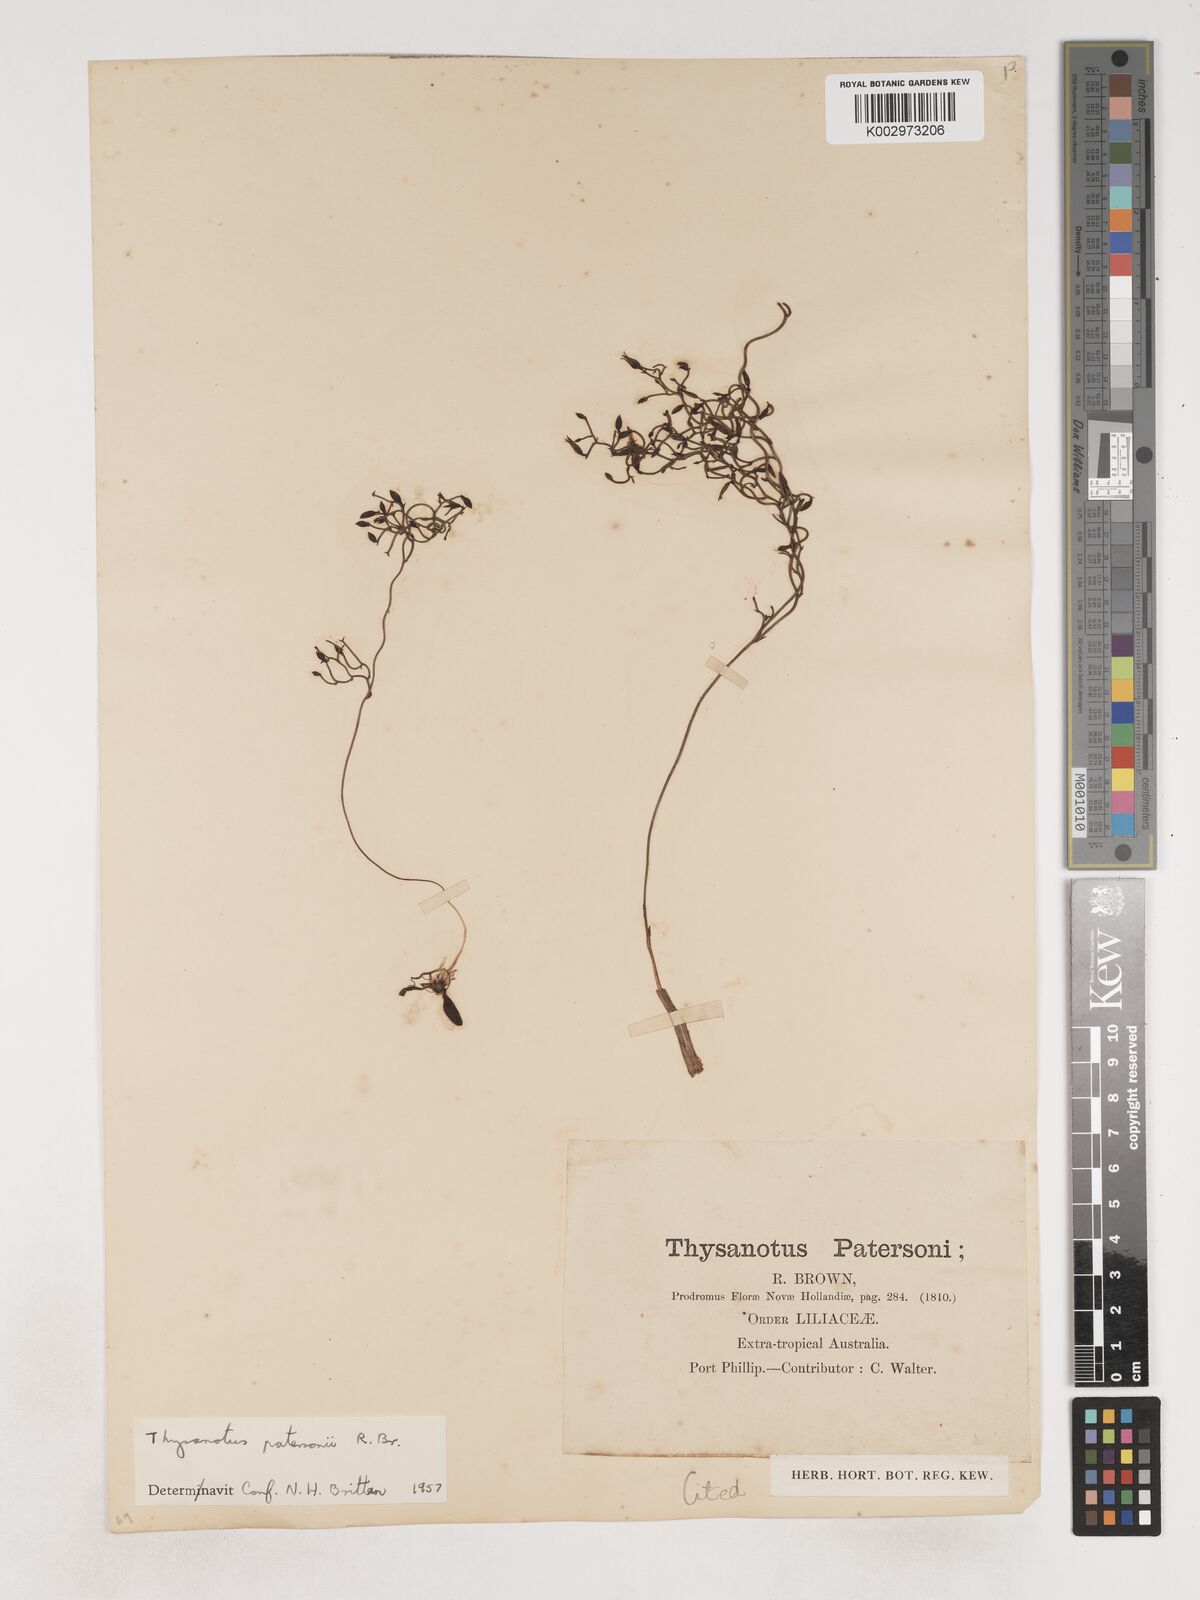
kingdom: Plantae
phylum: Tracheophyta
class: Liliopsida
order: Asparagales
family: Asparagaceae
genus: Thysanotus
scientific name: Thysanotus patersonii
